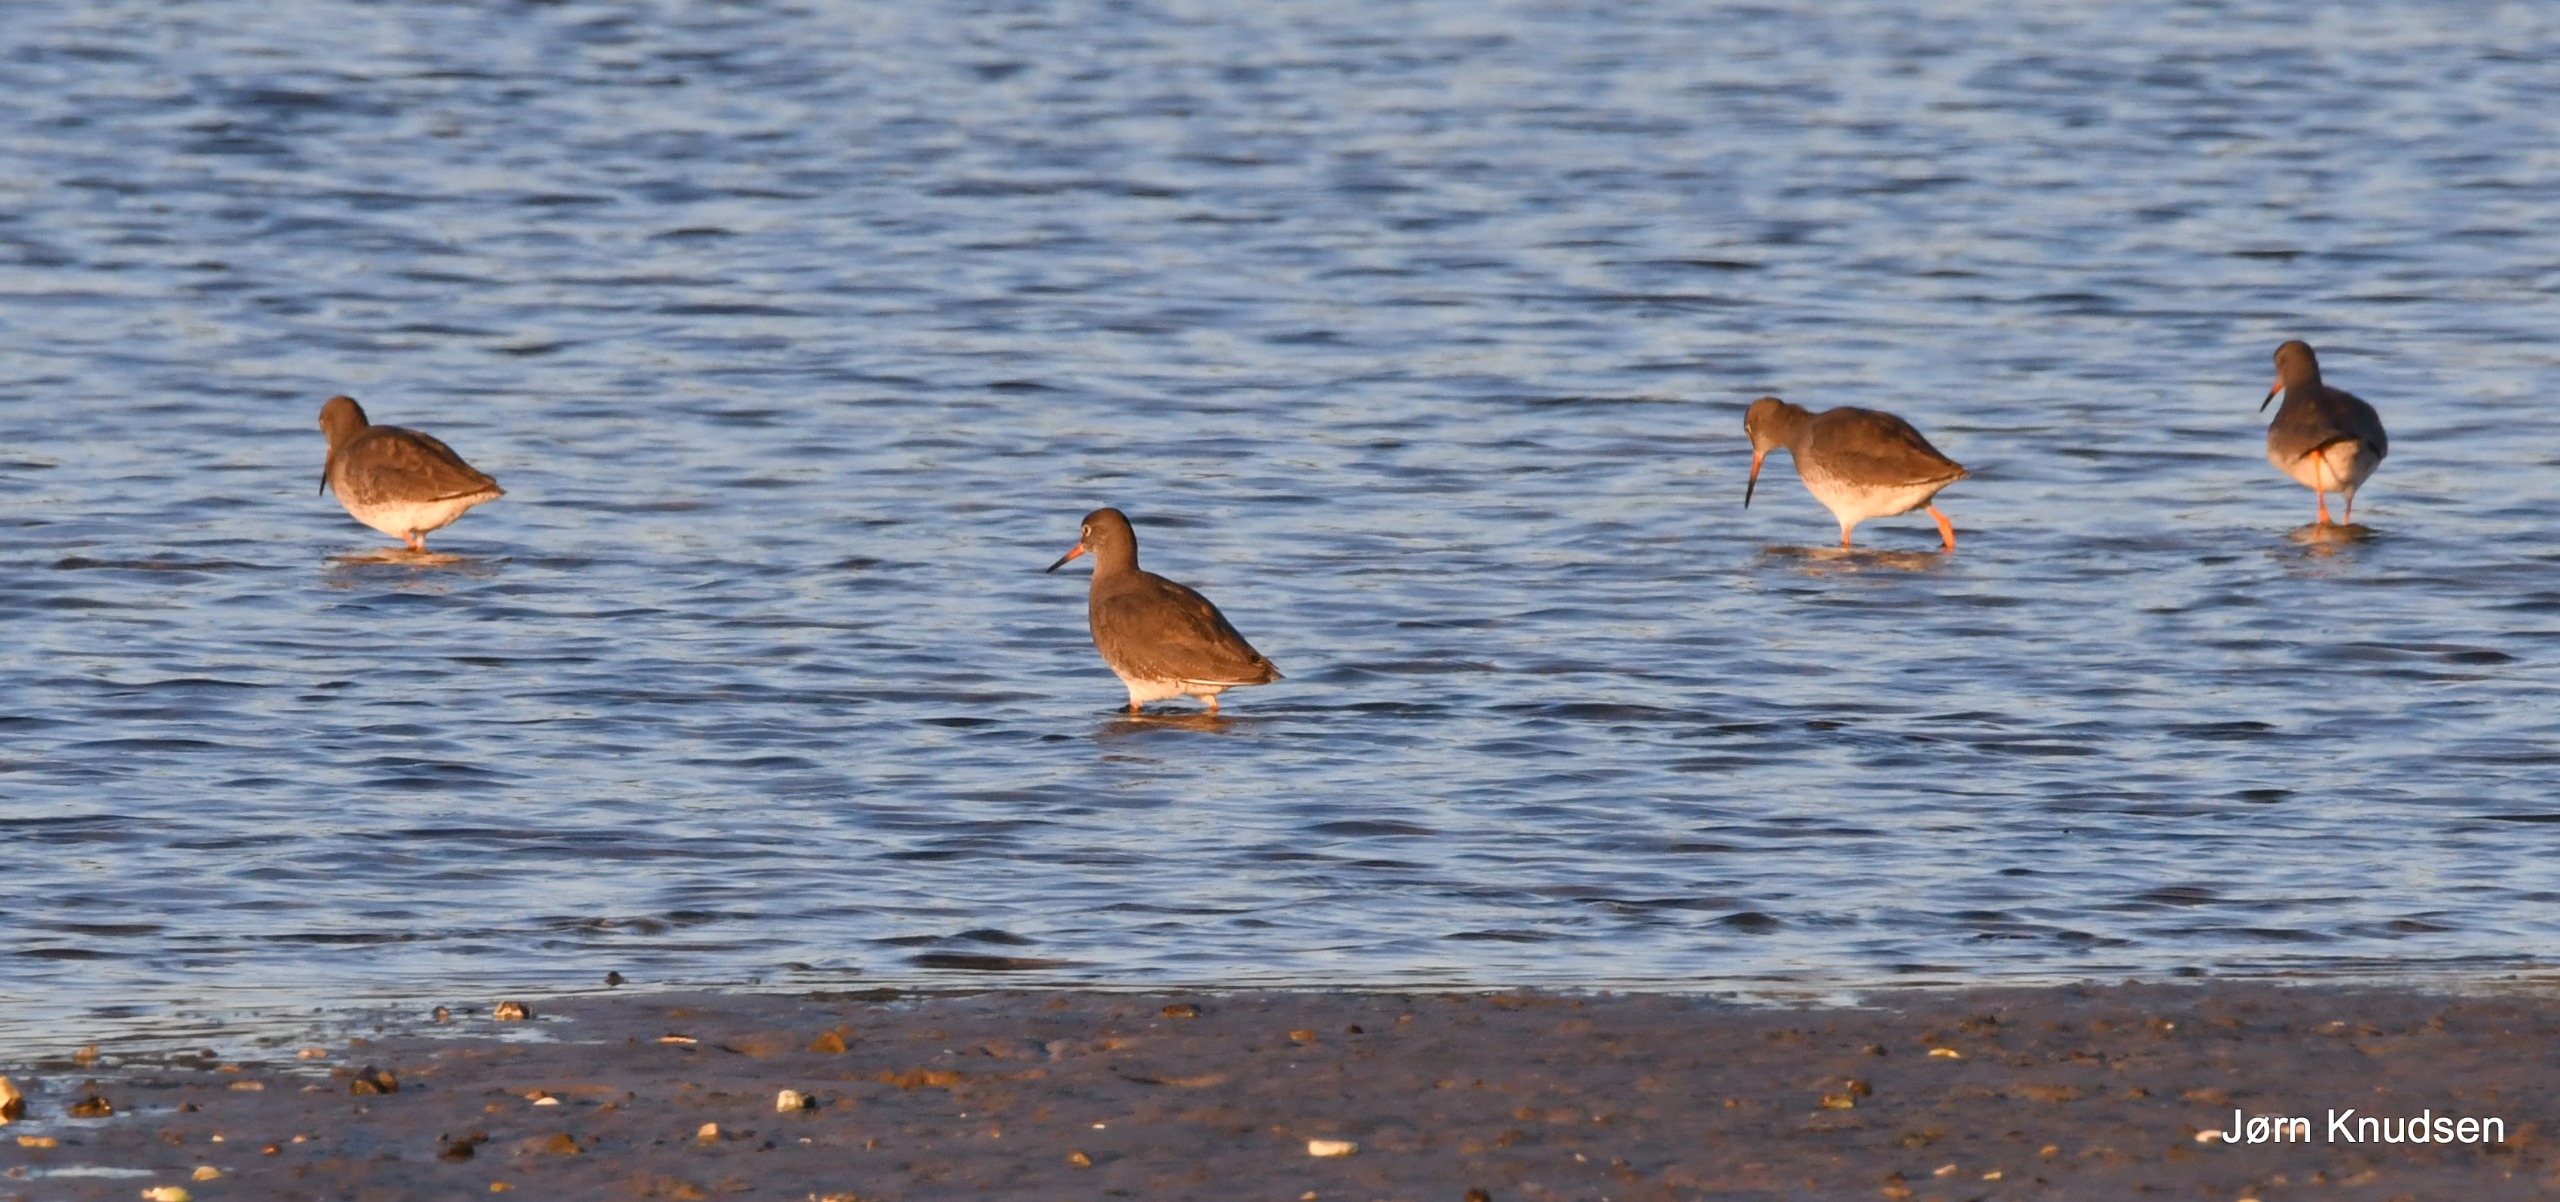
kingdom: Animalia
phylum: Chordata
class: Aves
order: Charadriiformes
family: Scolopacidae
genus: Tringa
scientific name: Tringa totanus
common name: Rødben
